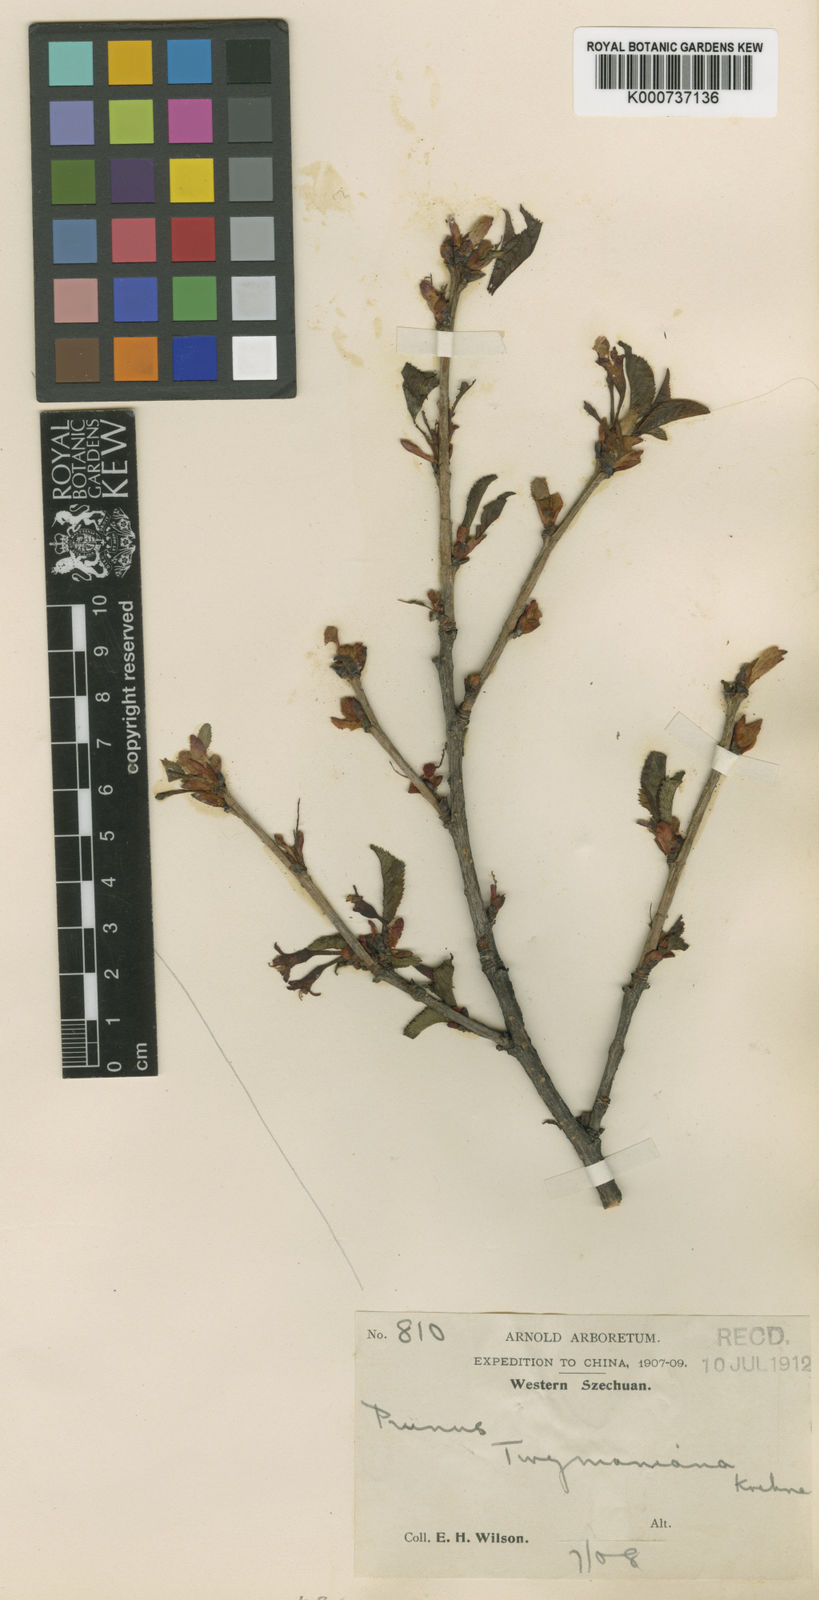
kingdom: Plantae
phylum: Tracheophyta
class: Magnoliopsida
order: Rosales
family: Rosaceae
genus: Prunus
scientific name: Prunus conradinae
